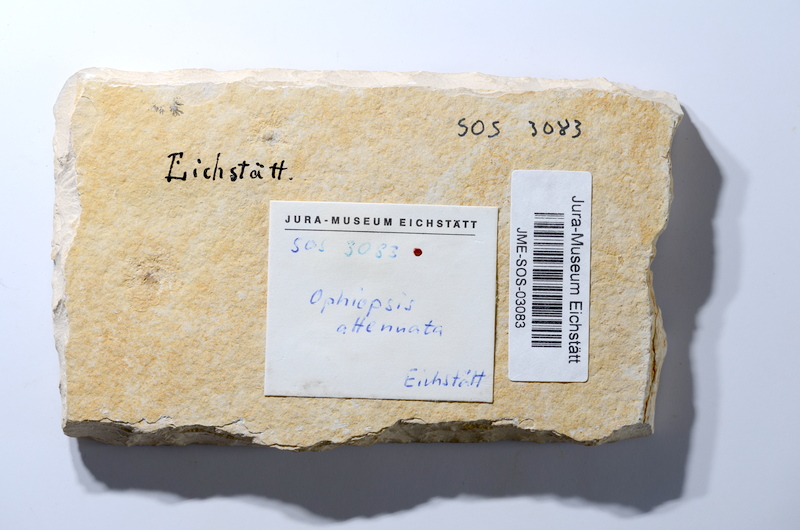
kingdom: Animalia
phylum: Chordata
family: Ophiopsiellidae
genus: Ophiopsiella
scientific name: Ophiopsiella attenuata
